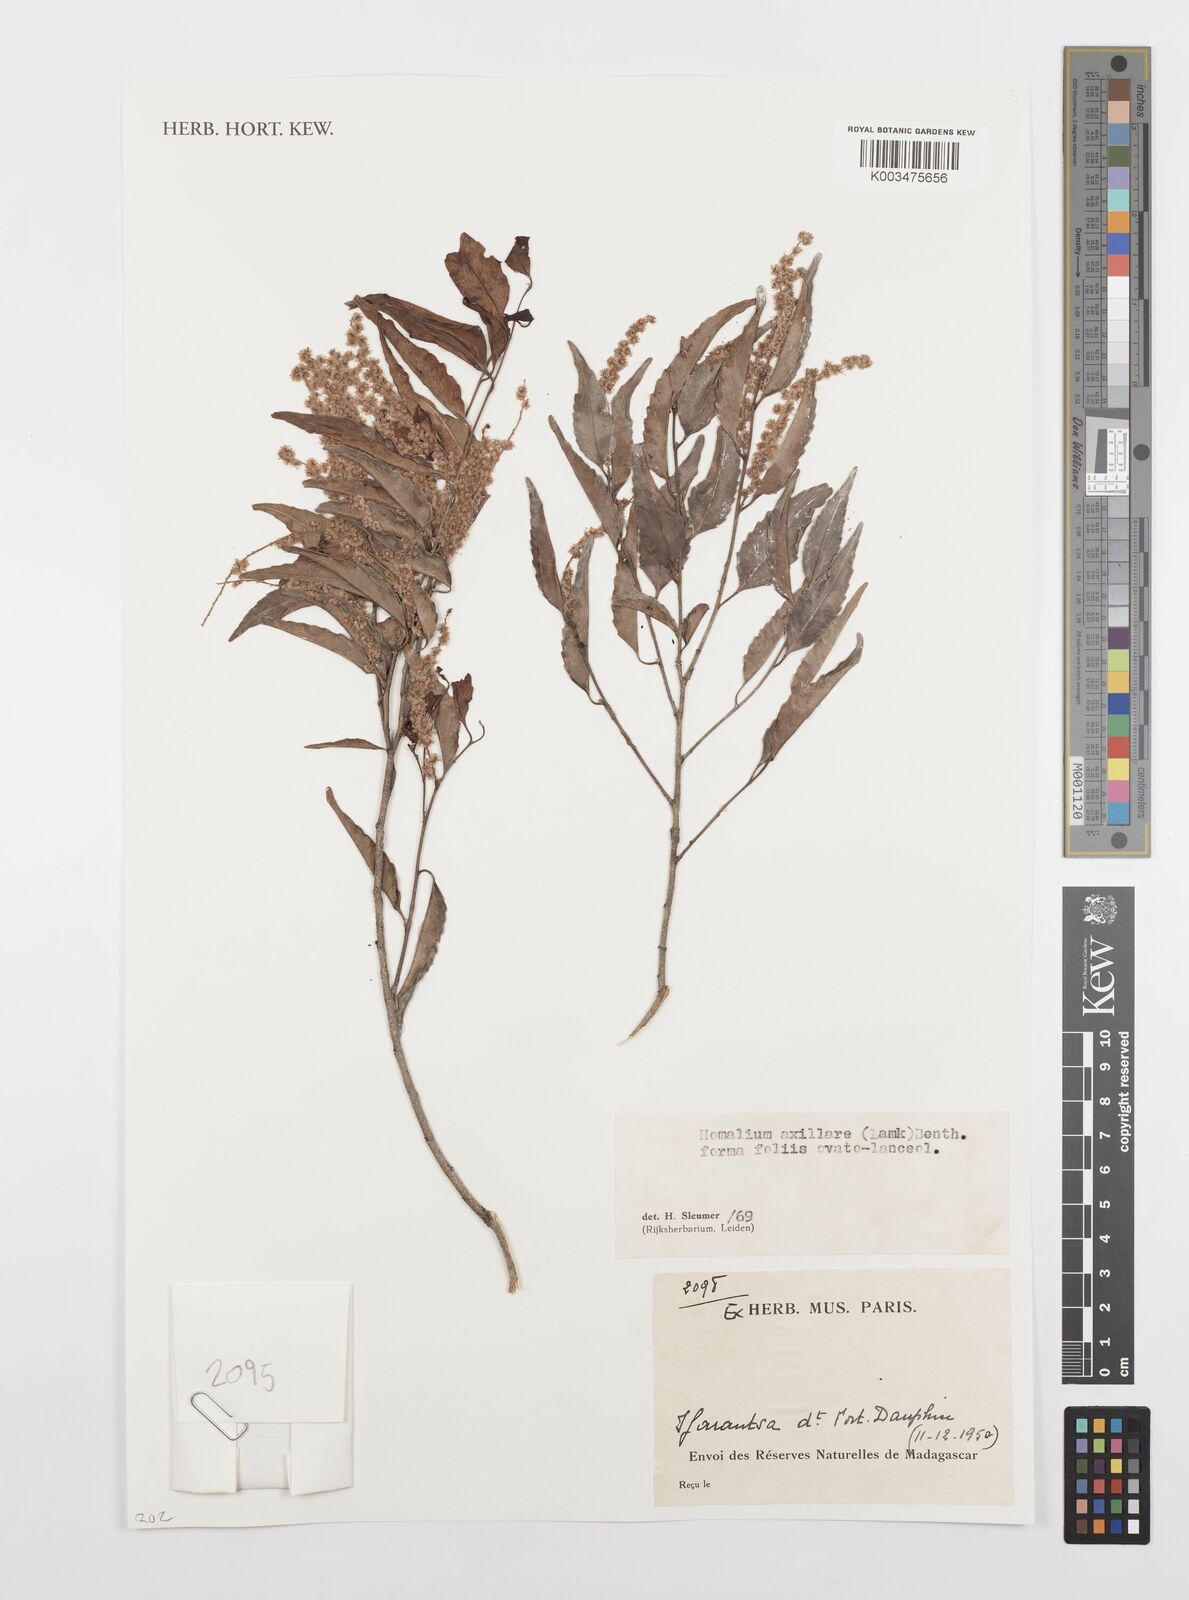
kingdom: Plantae
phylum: Tracheophyta
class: Magnoliopsida
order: Malpighiales
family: Salicaceae
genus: Homalium
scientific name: Homalium axillare
